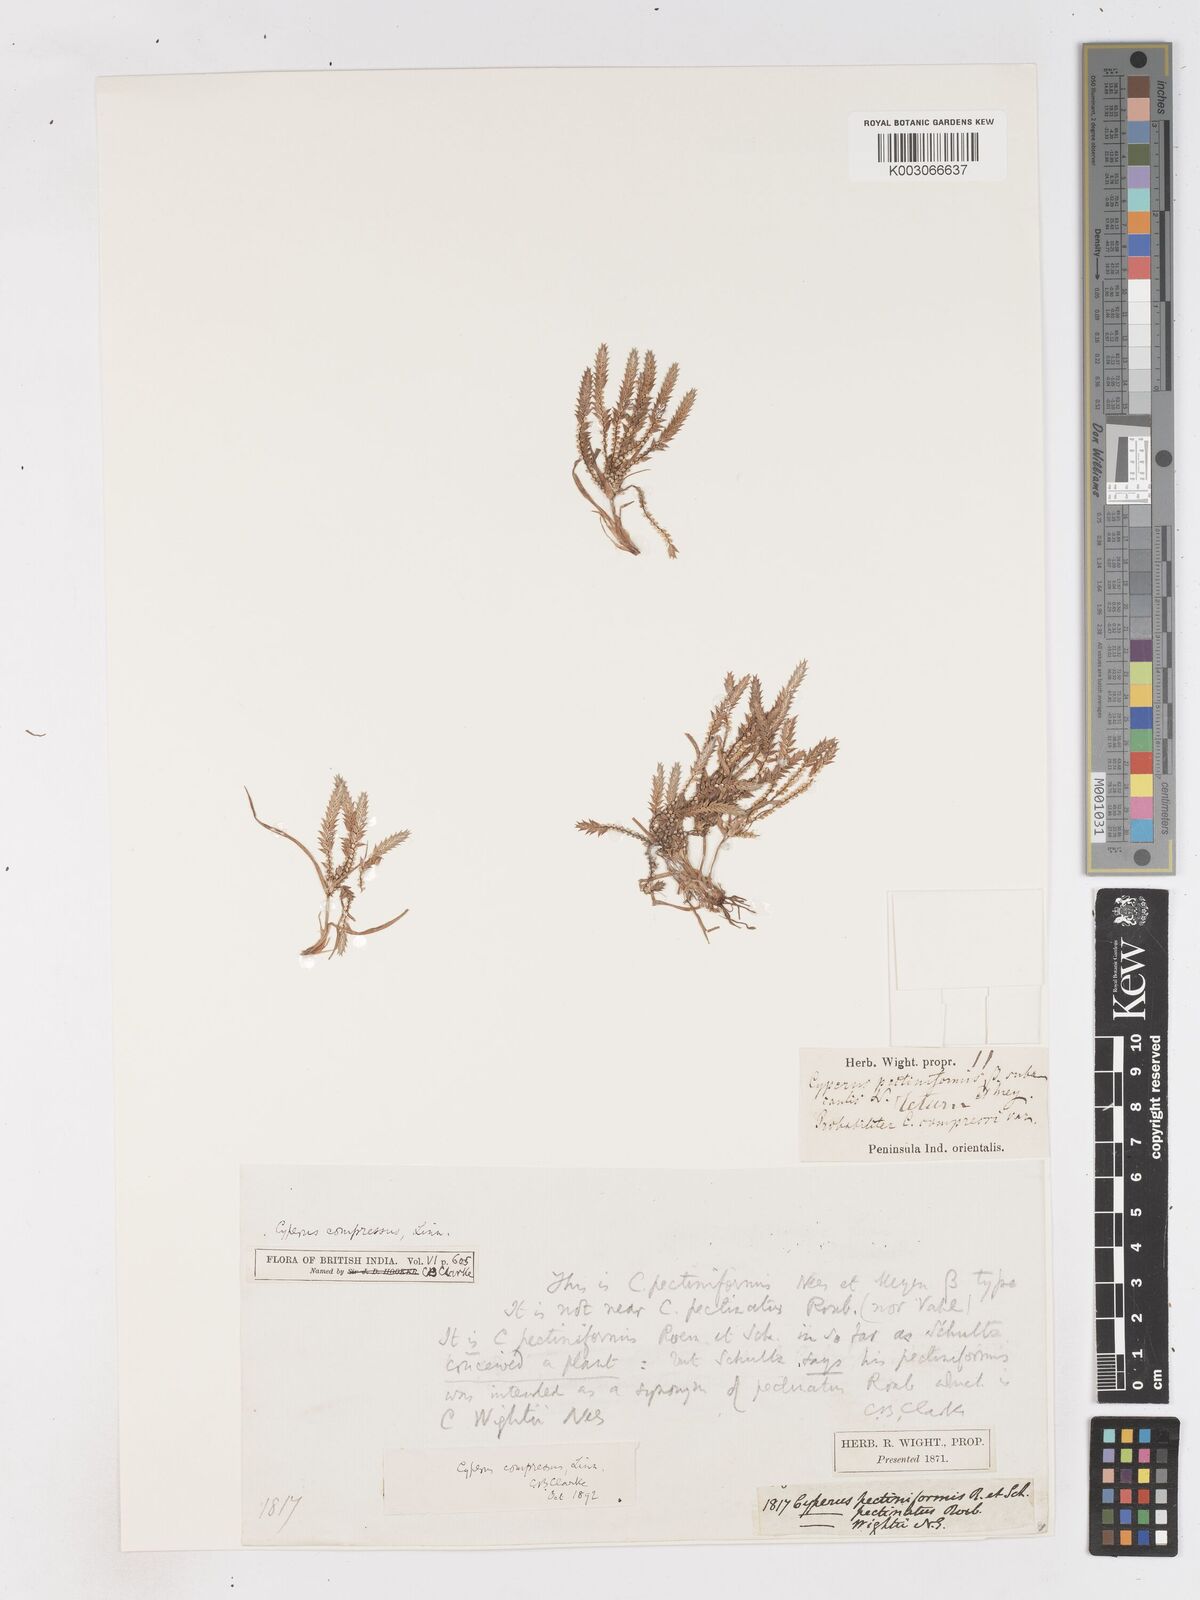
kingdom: Plantae
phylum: Tracheophyta
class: Liliopsida
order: Poales
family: Cyperaceae
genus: Cyperus
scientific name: Cyperus compressus
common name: Poorland flatsedge
